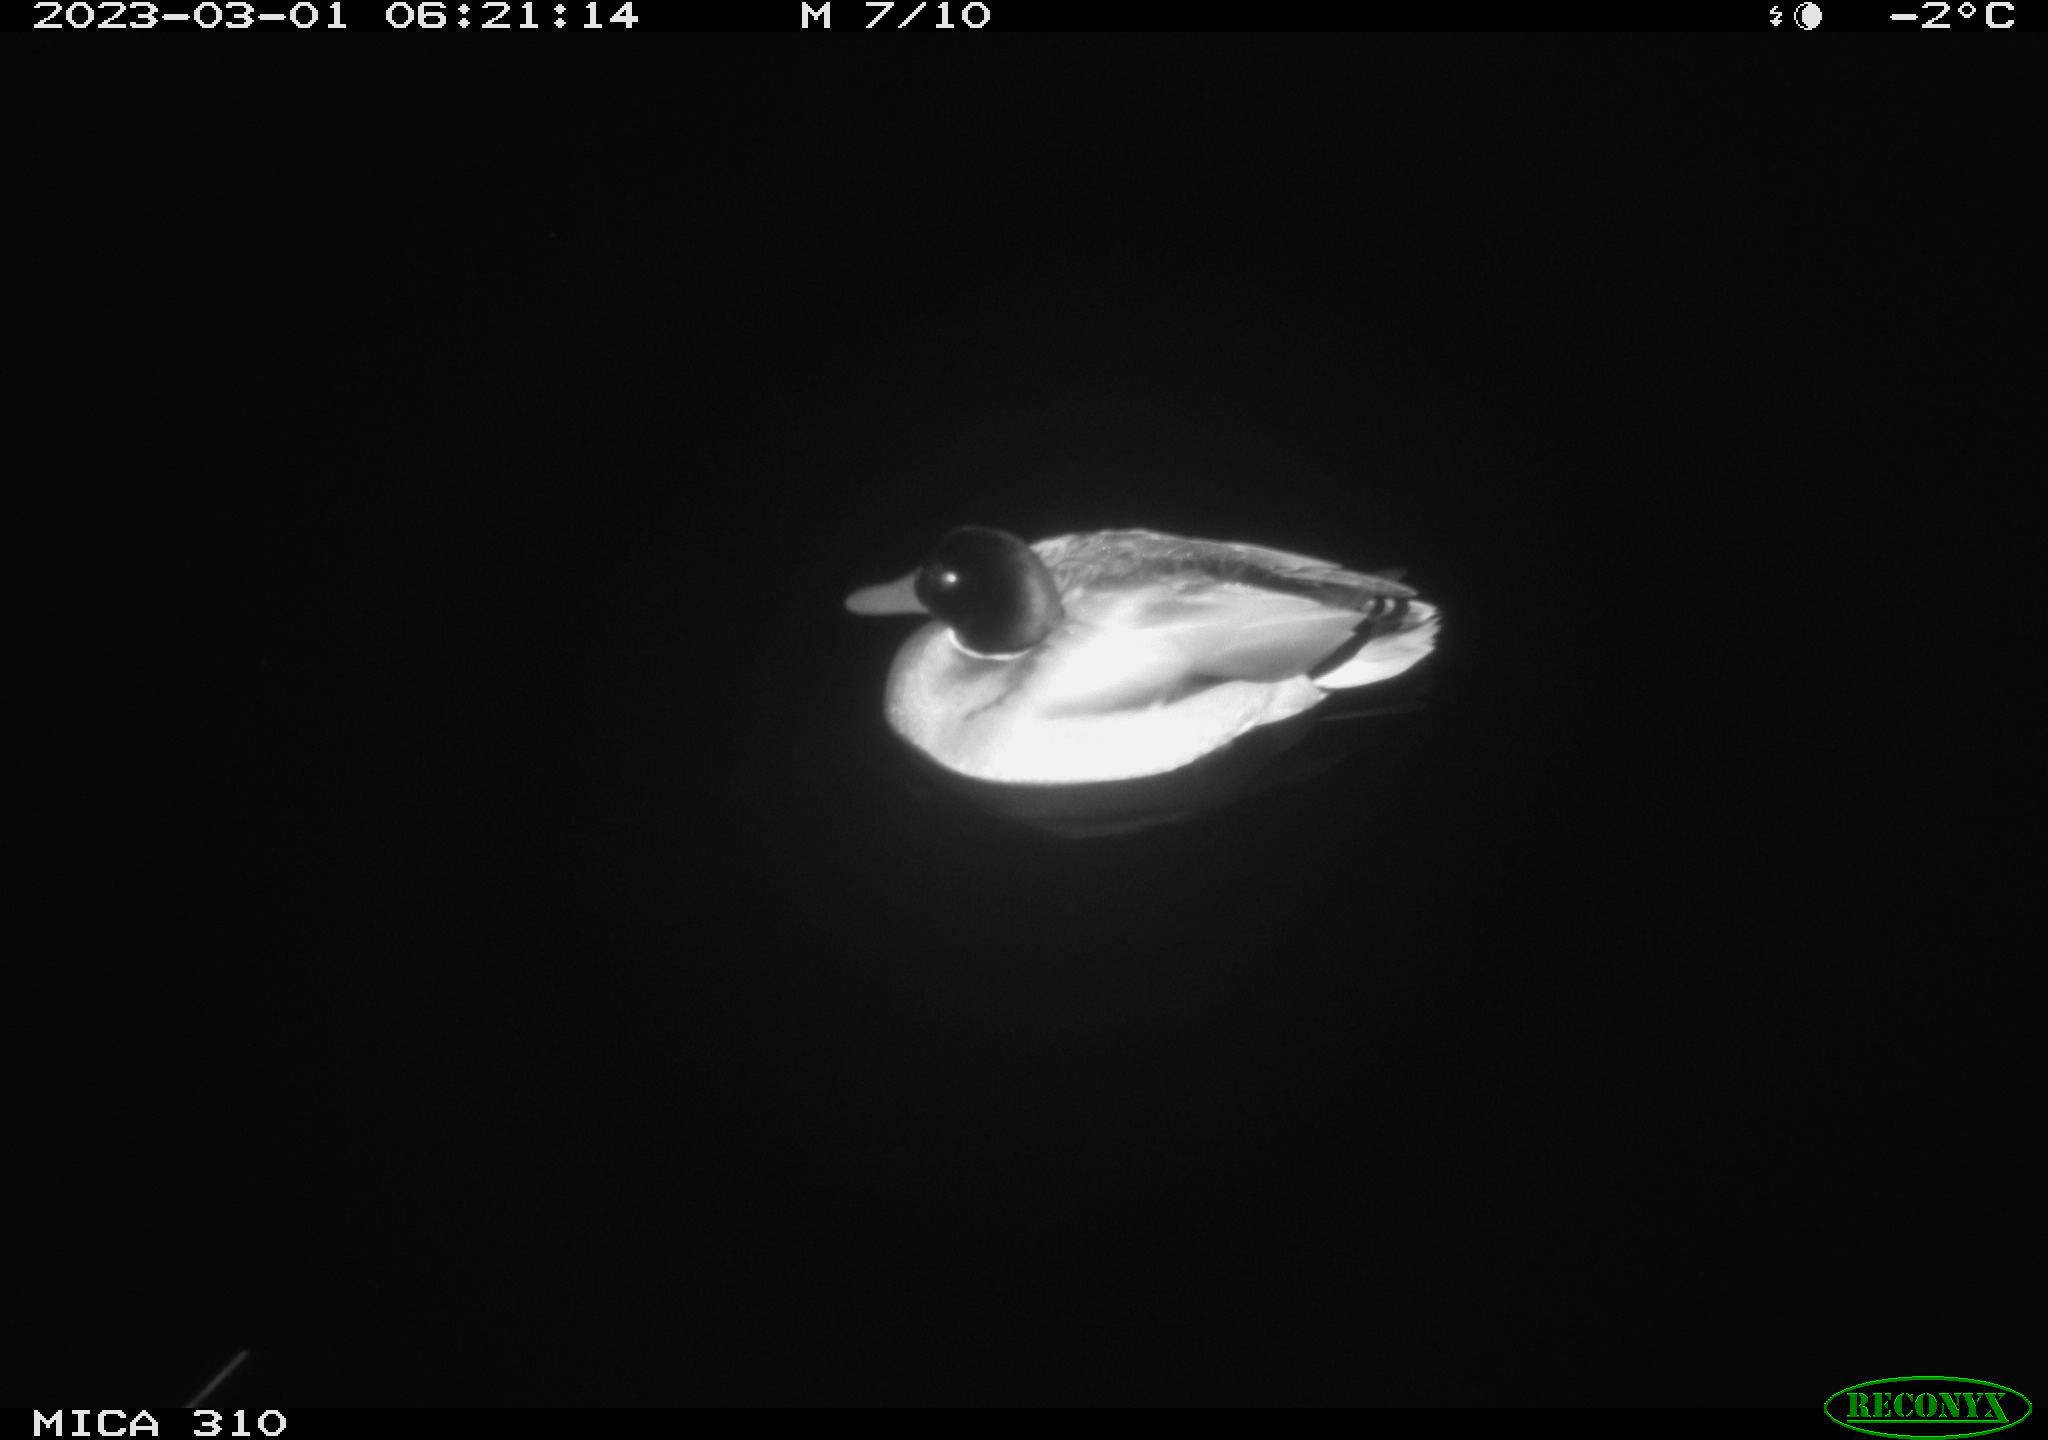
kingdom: Animalia
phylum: Chordata
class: Aves
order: Anseriformes
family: Anatidae
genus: Anas
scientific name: Anas
